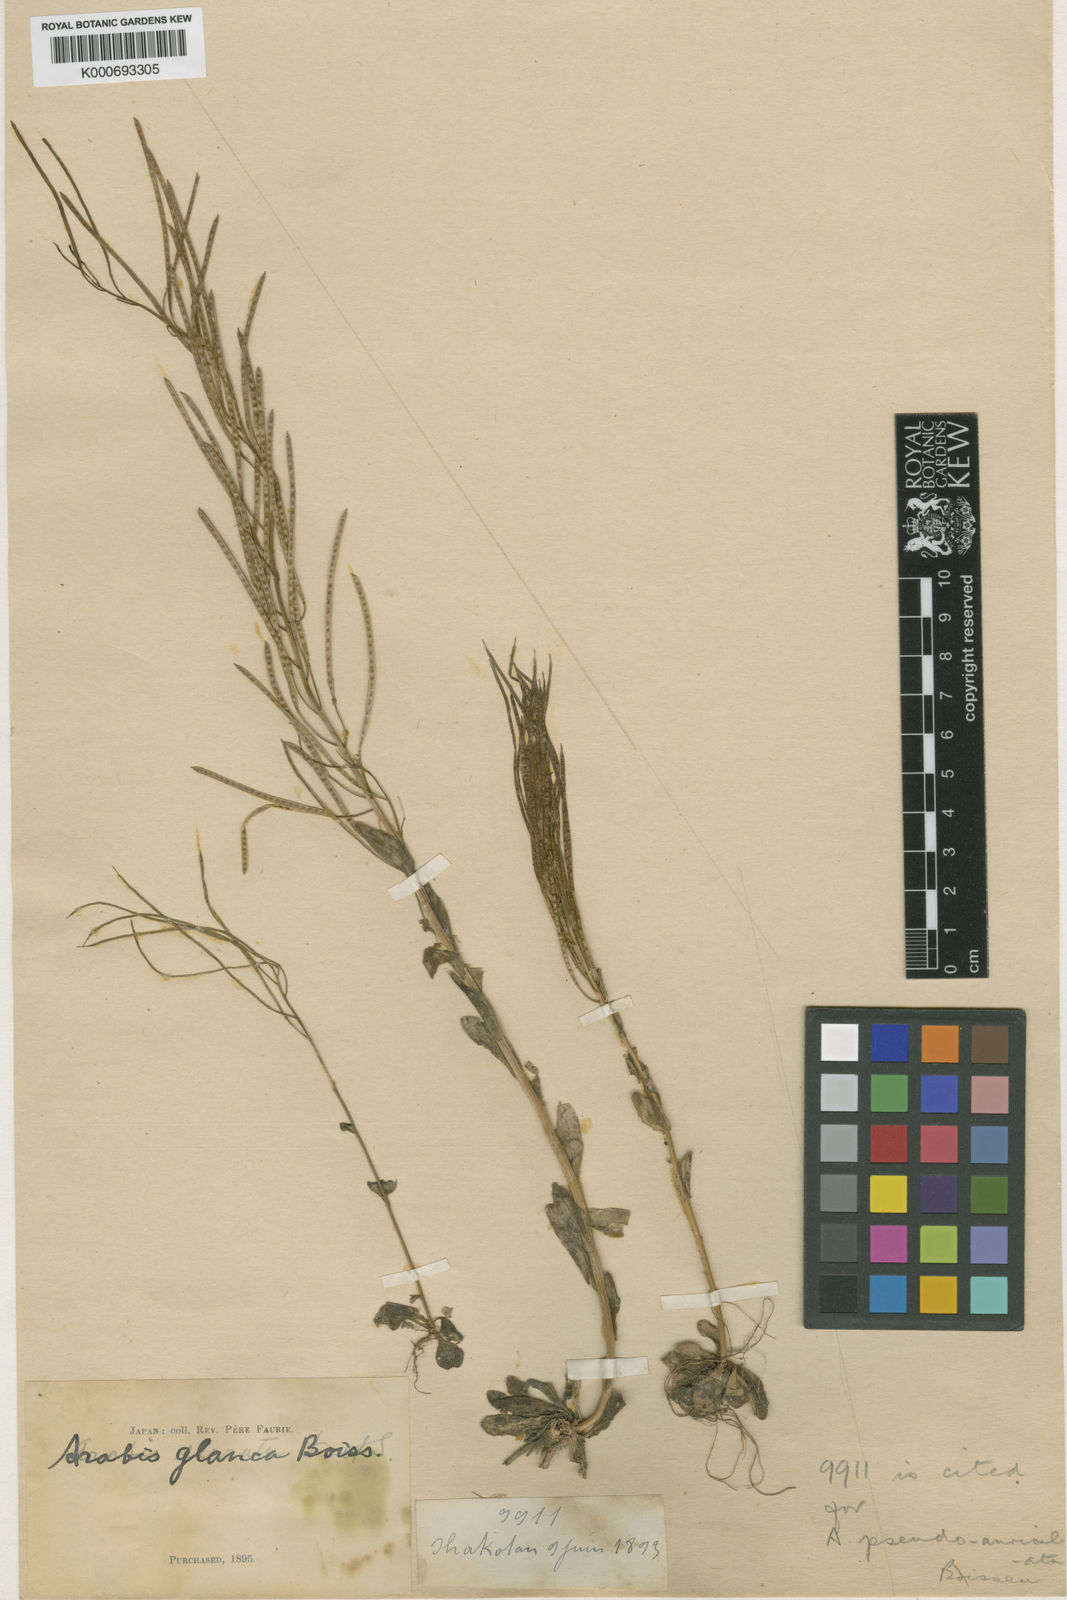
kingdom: Plantae
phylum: Tracheophyta
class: Magnoliopsida
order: Brassicales
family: Brassicaceae
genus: Arabis
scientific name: Arabis serrata
